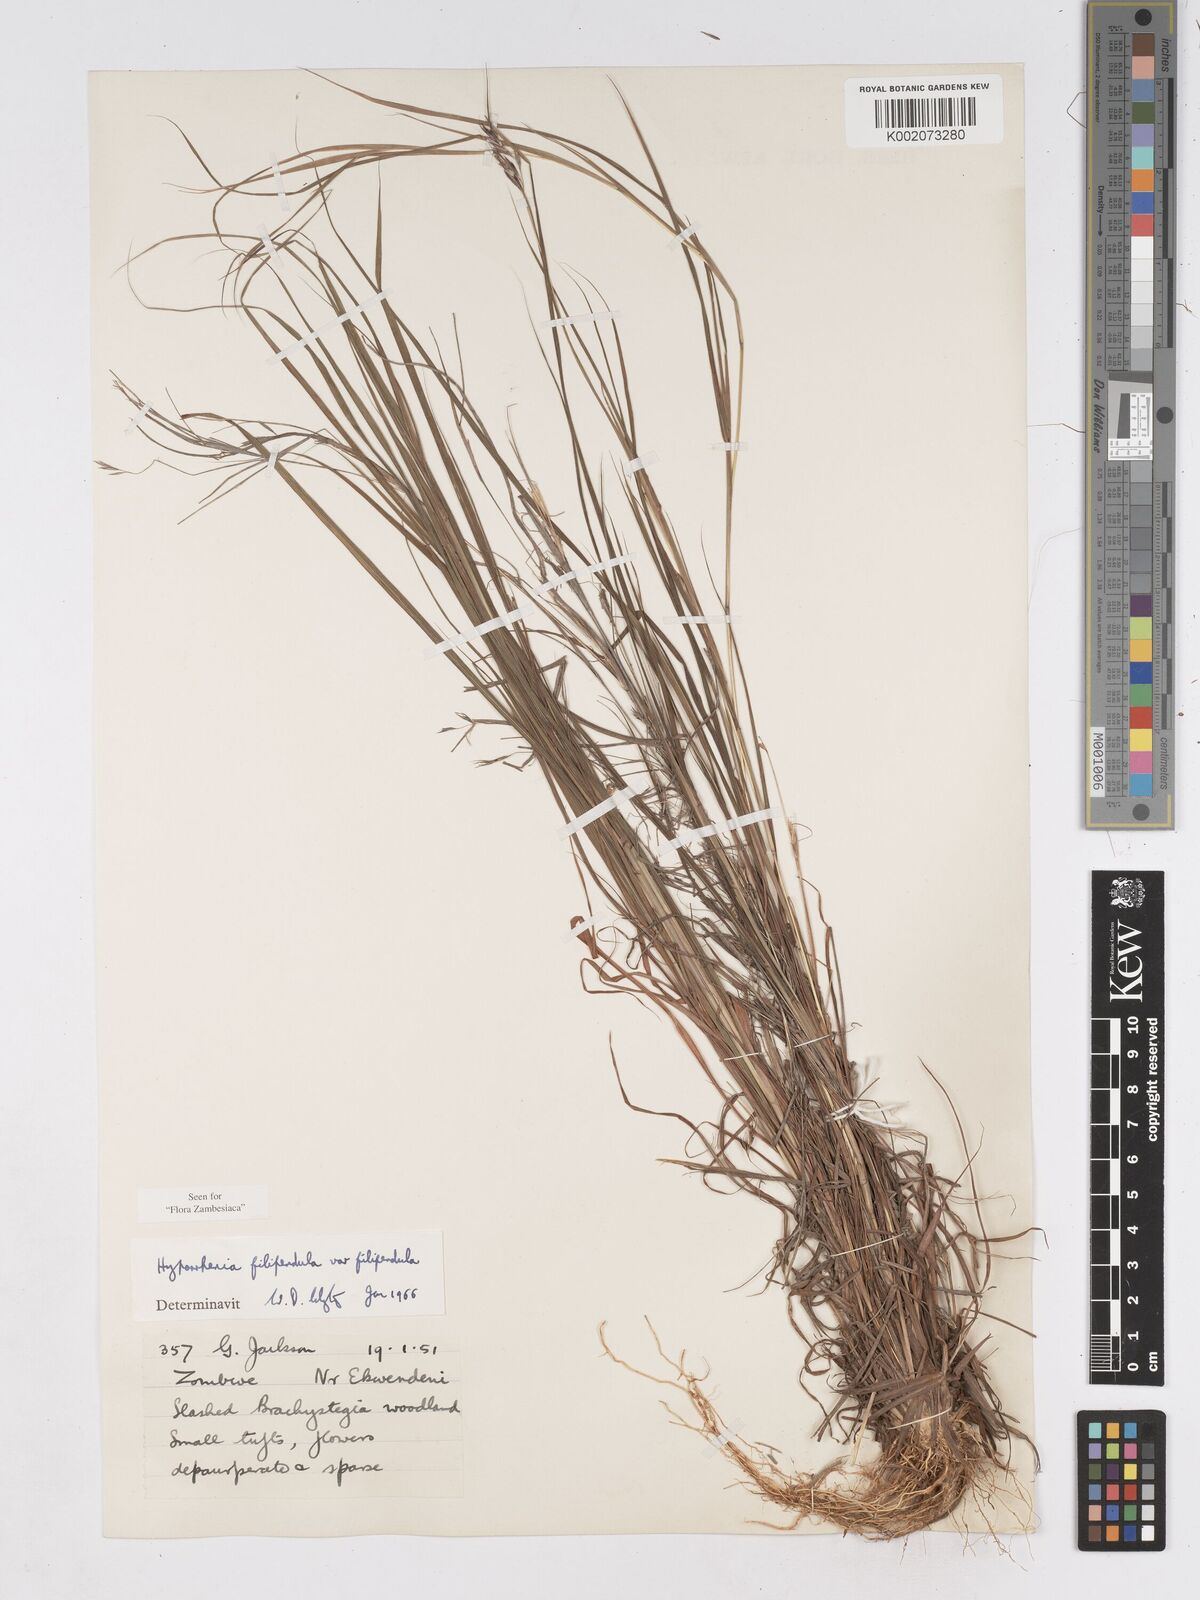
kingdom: Plantae
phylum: Tracheophyta
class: Liliopsida
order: Poales
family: Poaceae
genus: Hyparrhenia
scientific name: Hyparrhenia filipendula
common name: Tambookie grass
